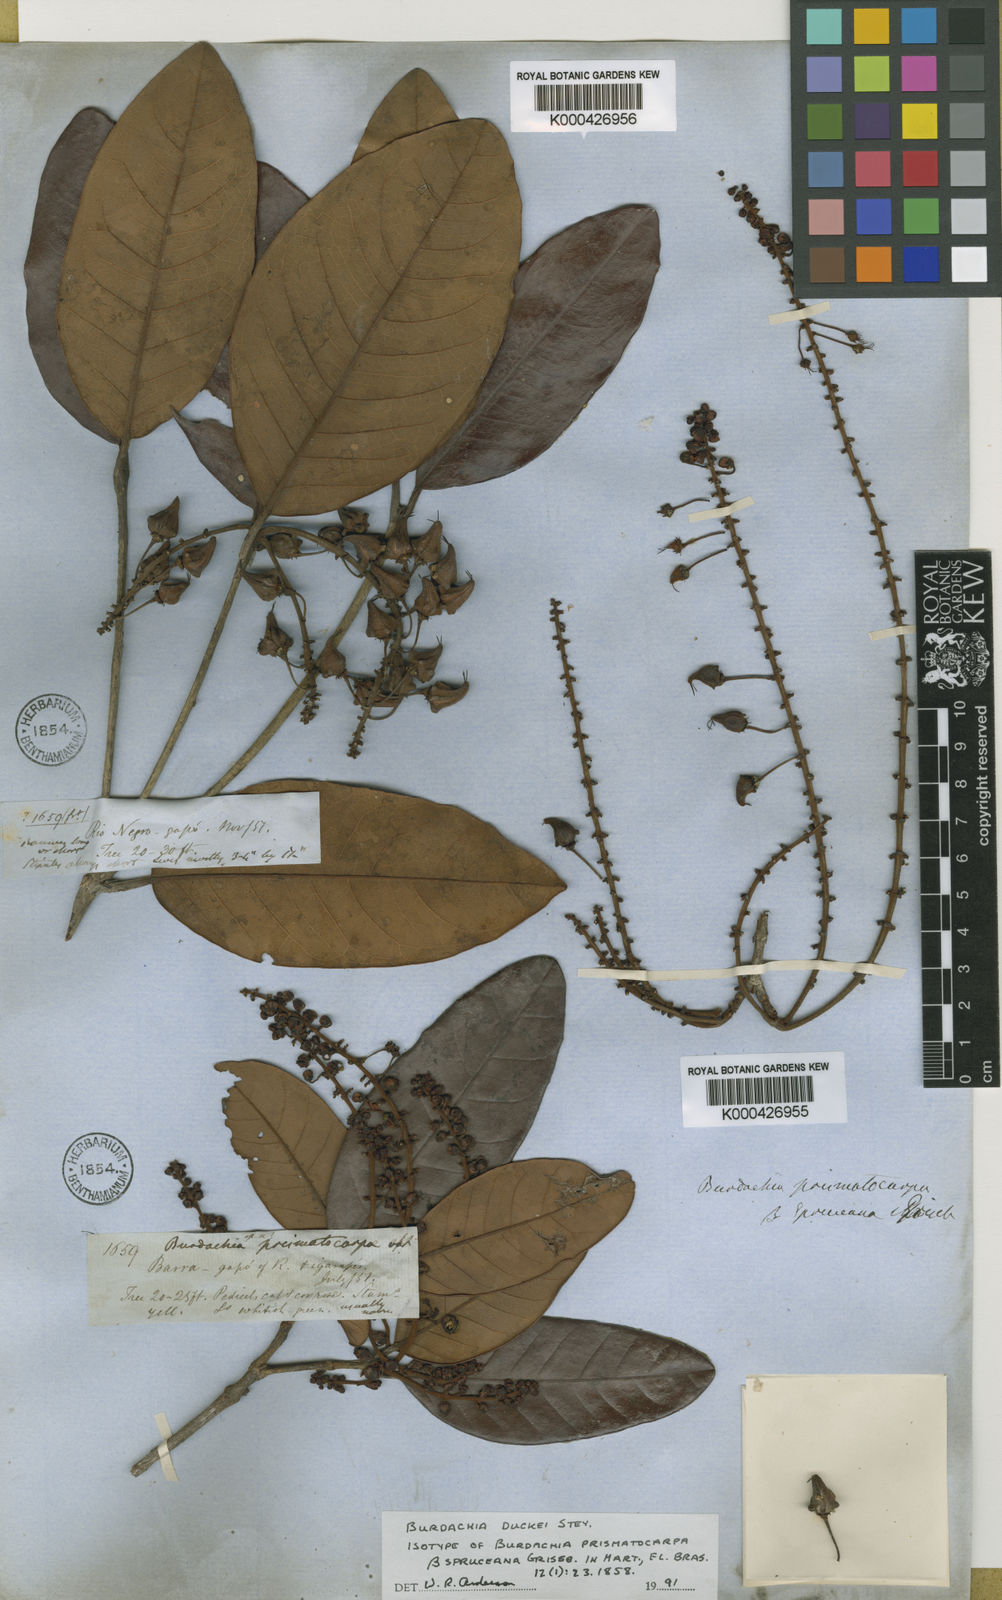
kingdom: Plantae
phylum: Tracheophyta
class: Magnoliopsida
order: Malpighiales
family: Malpighiaceae
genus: Burdachia
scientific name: Burdachia duckei
